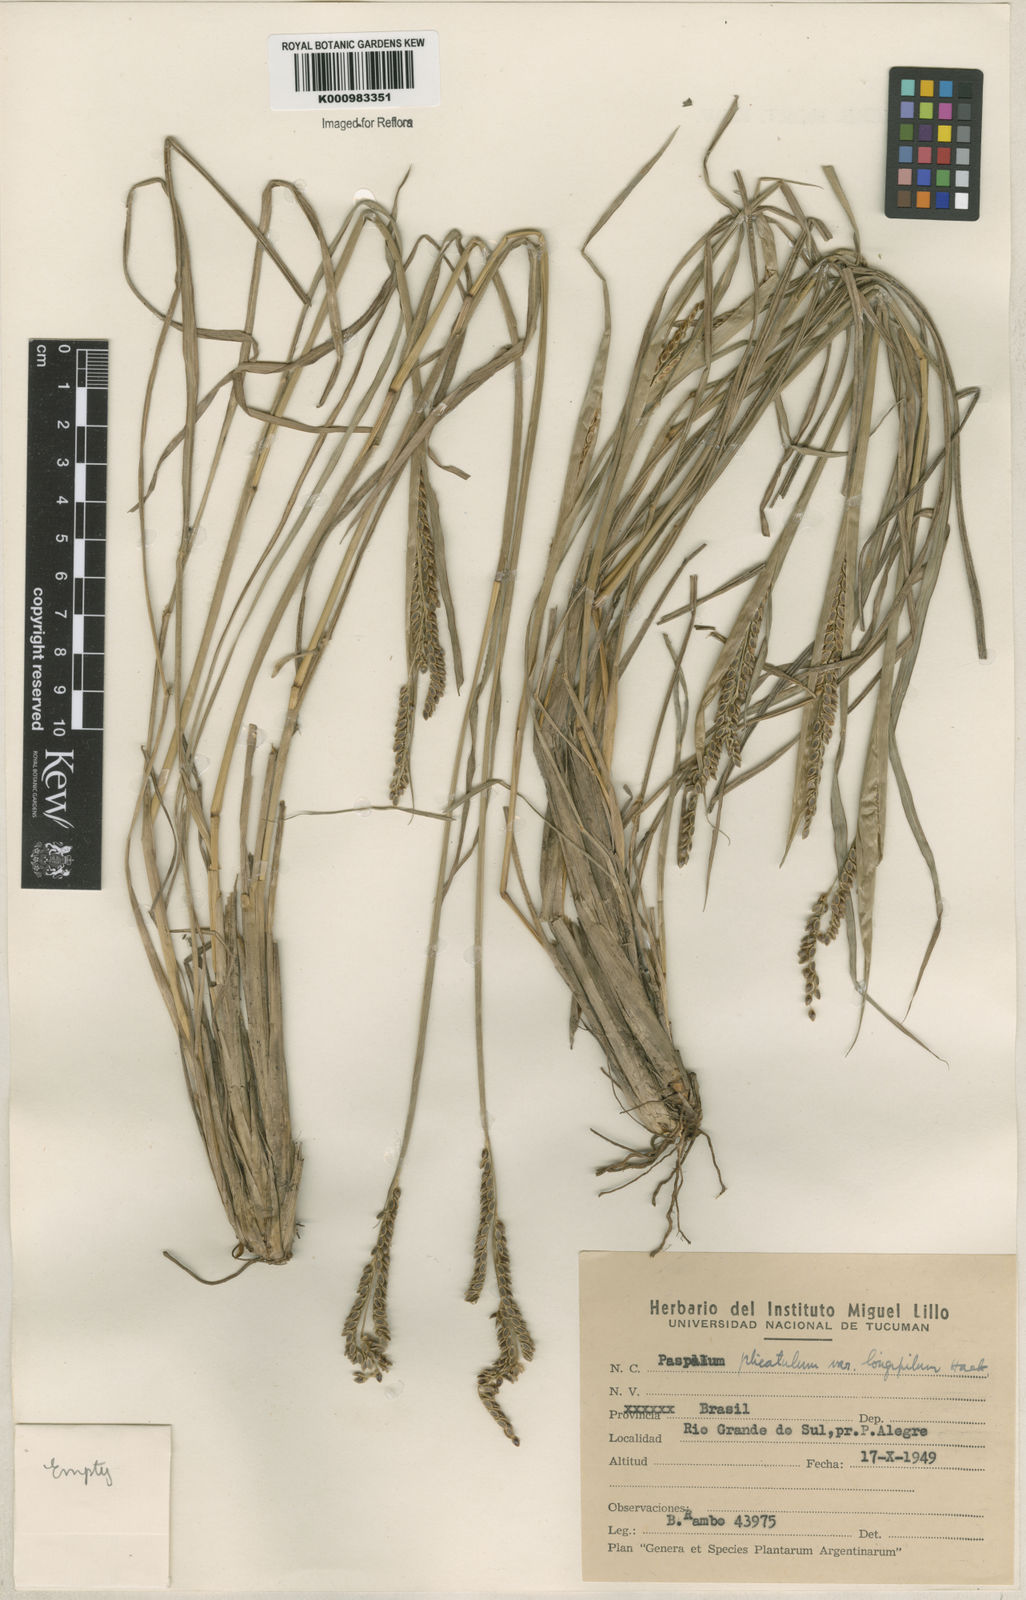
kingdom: Plantae
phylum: Tracheophyta
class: Liliopsida
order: Poales
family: Poaceae
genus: Paspalum
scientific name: Paspalum plicatulum
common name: Top paspalum
